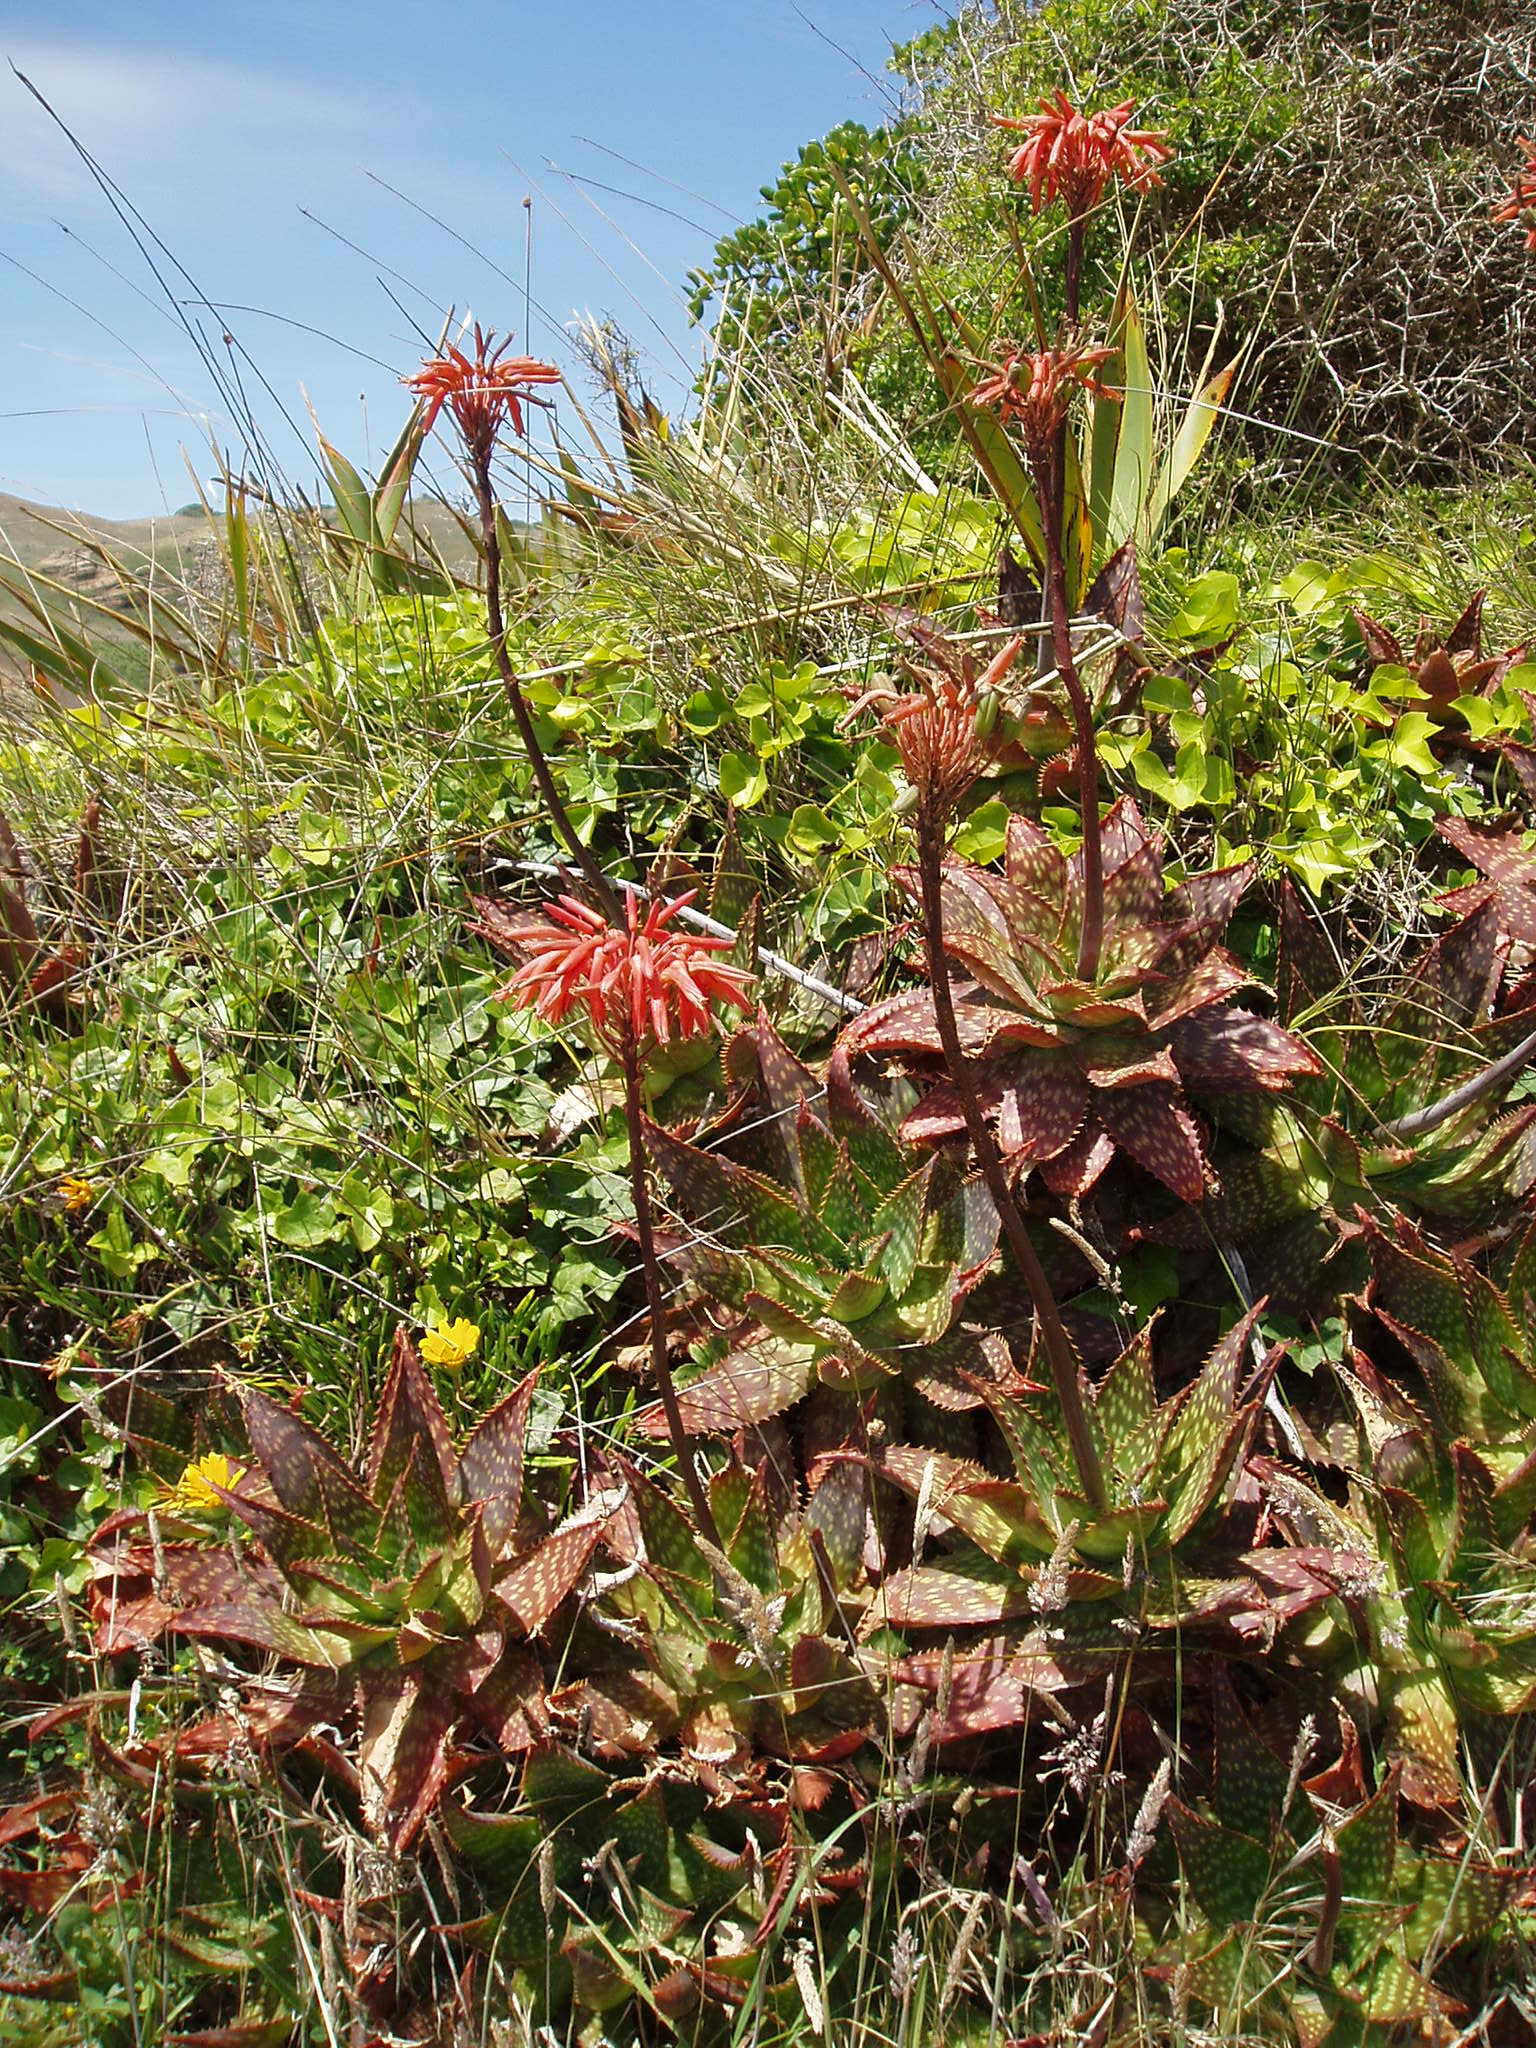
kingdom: Plantae
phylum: Tracheophyta
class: Liliopsida
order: Asparagales
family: Asphodelaceae
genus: Aloe
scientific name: Aloe maculata
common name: Broadleaf aloe
